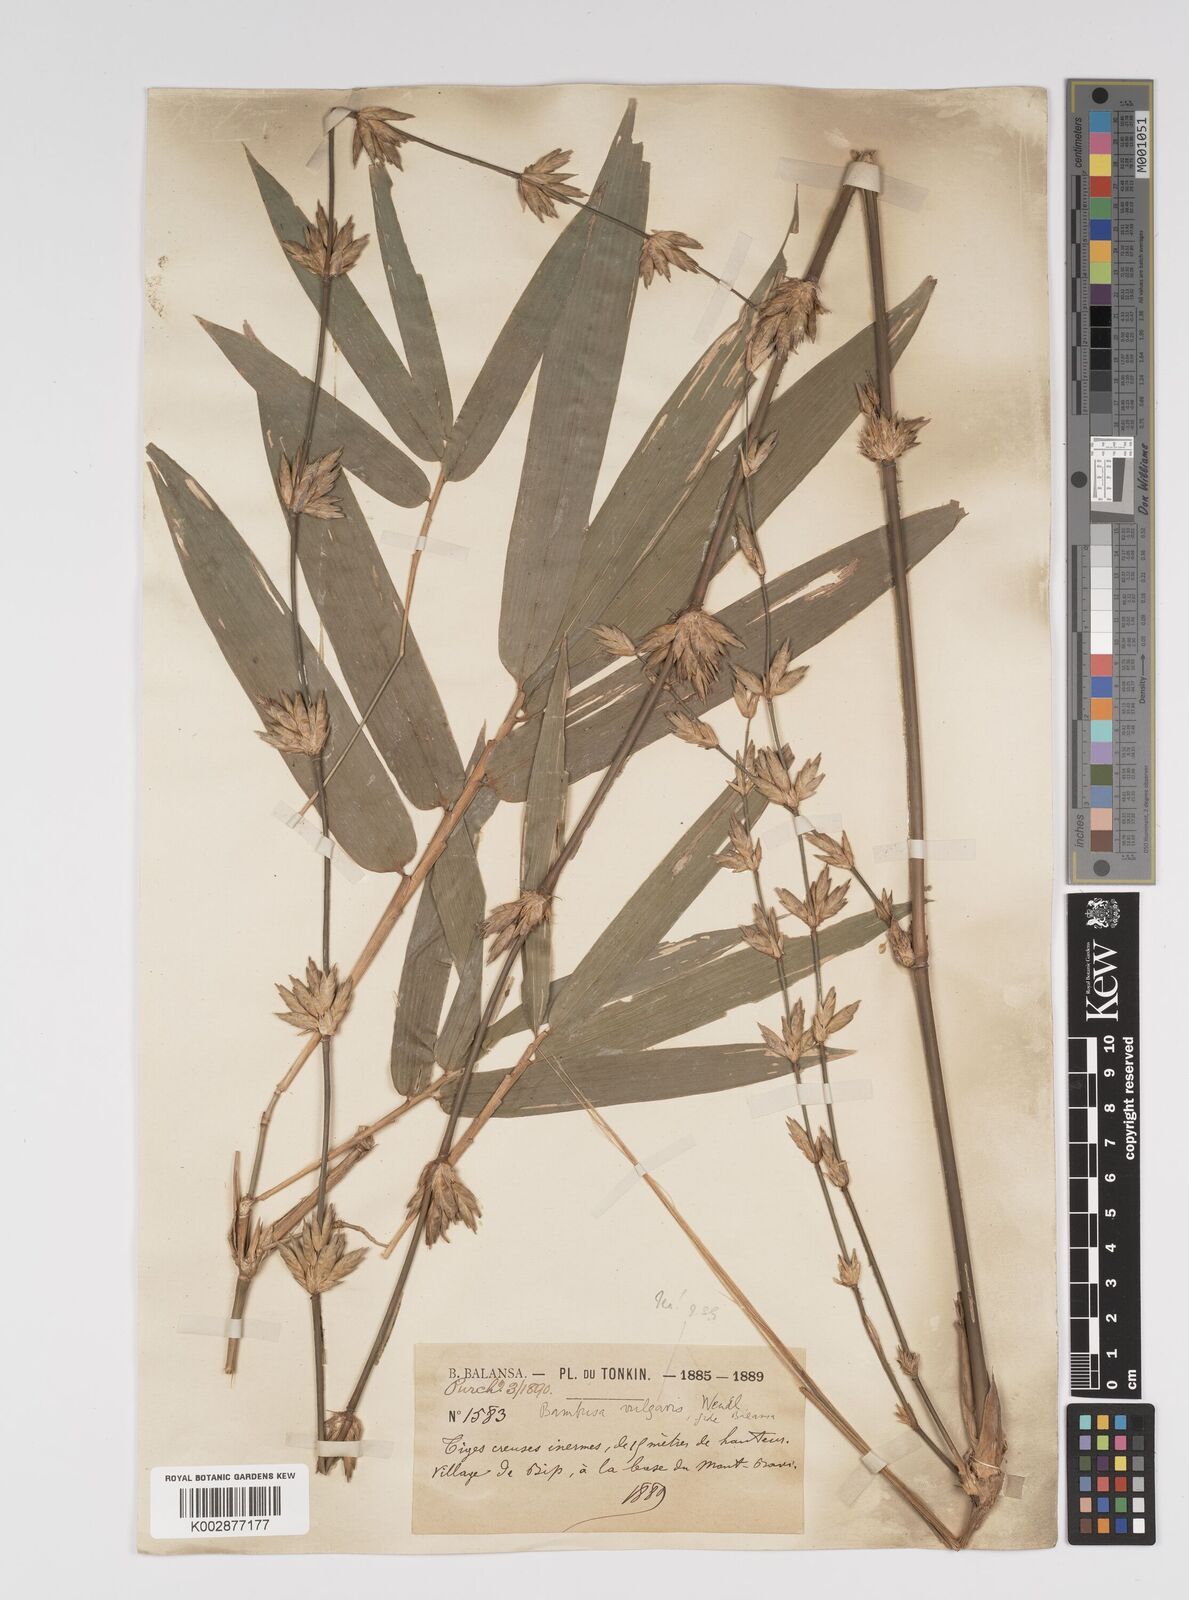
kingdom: Plantae
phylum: Tracheophyta
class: Liliopsida
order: Poales
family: Poaceae
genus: Bambusa
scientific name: Bambusa balcooa
